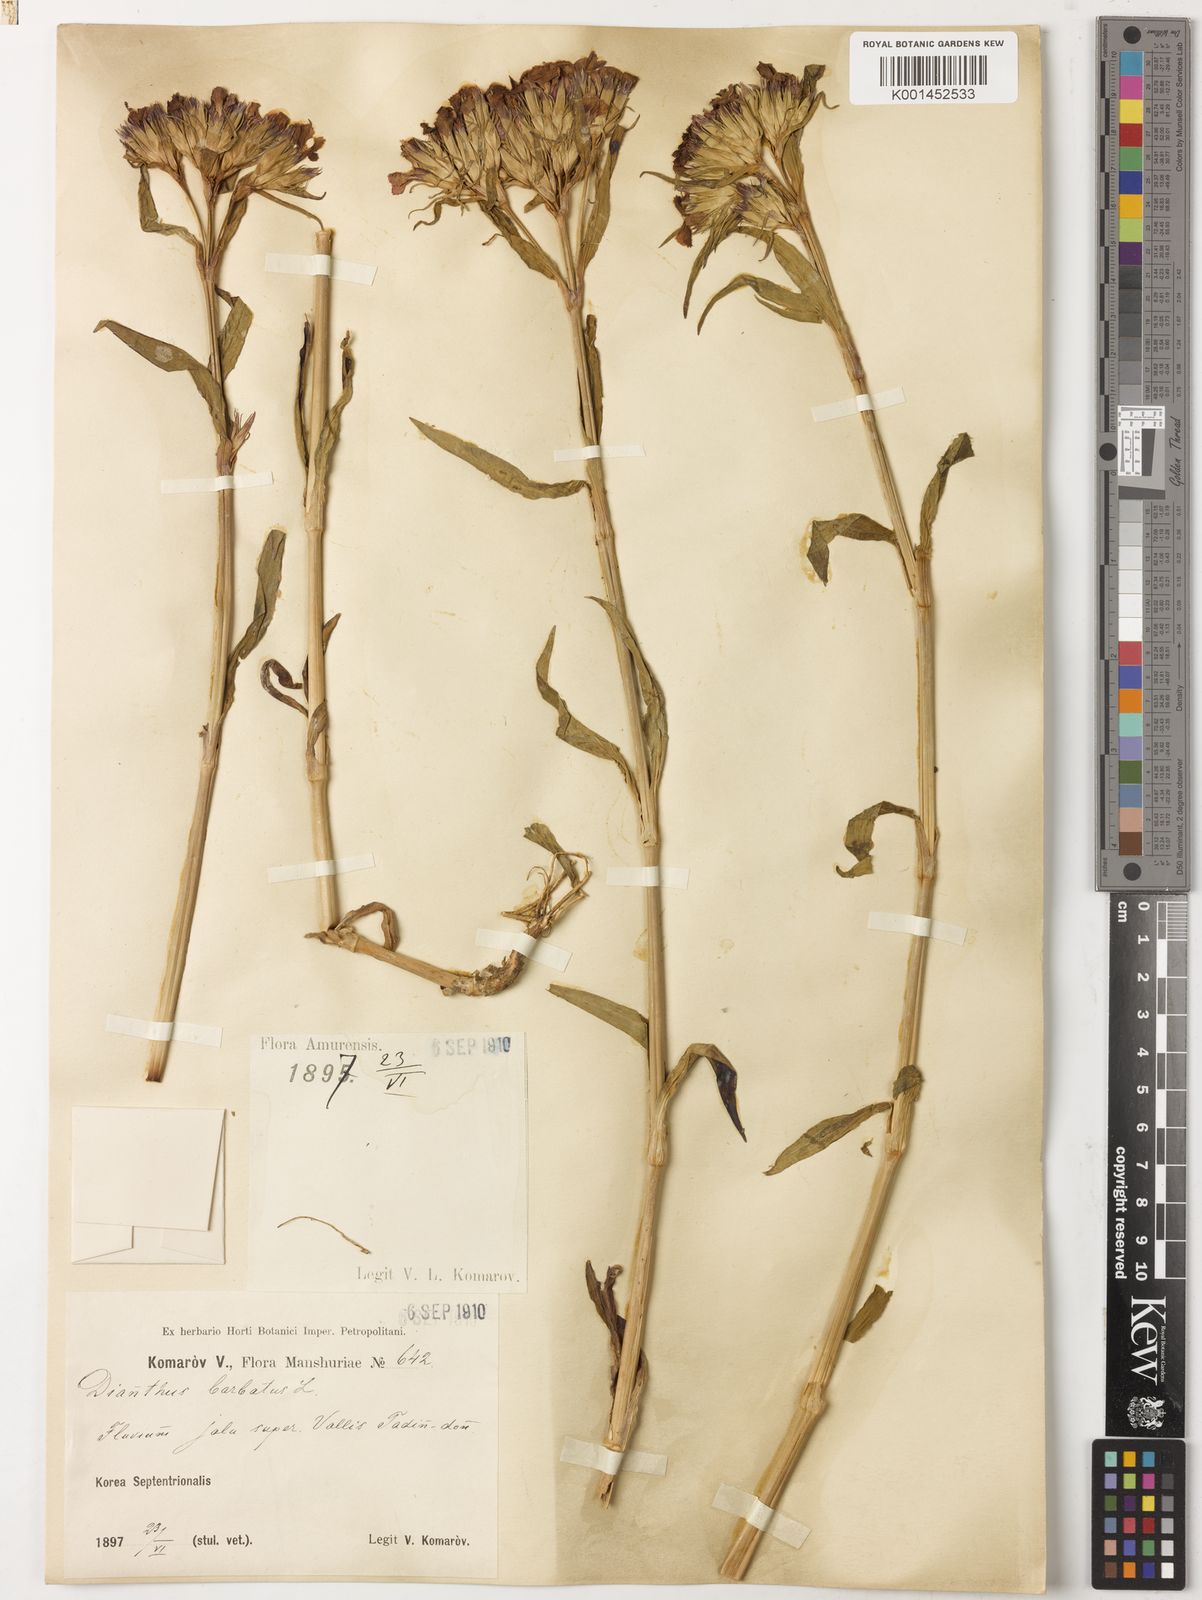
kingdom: Plantae
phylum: Tracheophyta
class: Magnoliopsida
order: Caryophyllales
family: Caryophyllaceae
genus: Dianthus
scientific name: Dianthus barbatus
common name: Sweet-william
